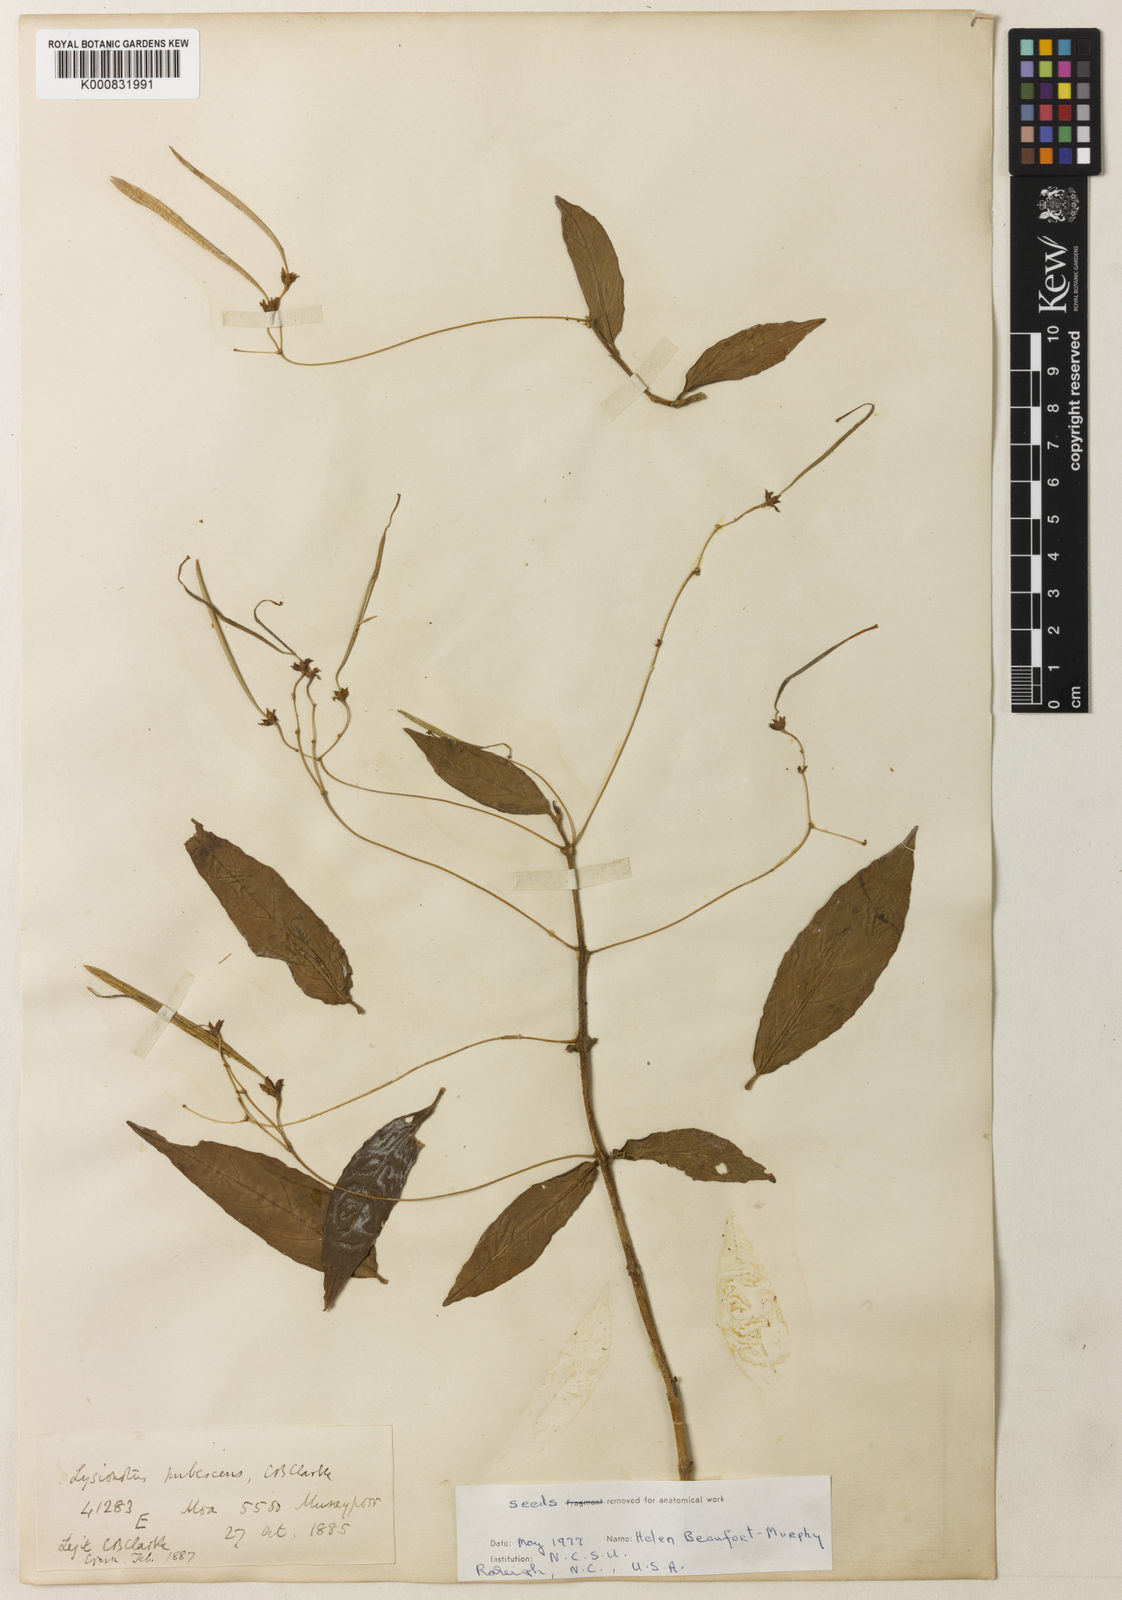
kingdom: Plantae
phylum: Tracheophyta
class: Magnoliopsida
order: Lamiales
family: Gesneriaceae
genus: Lysionotus
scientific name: Lysionotus pubescens
